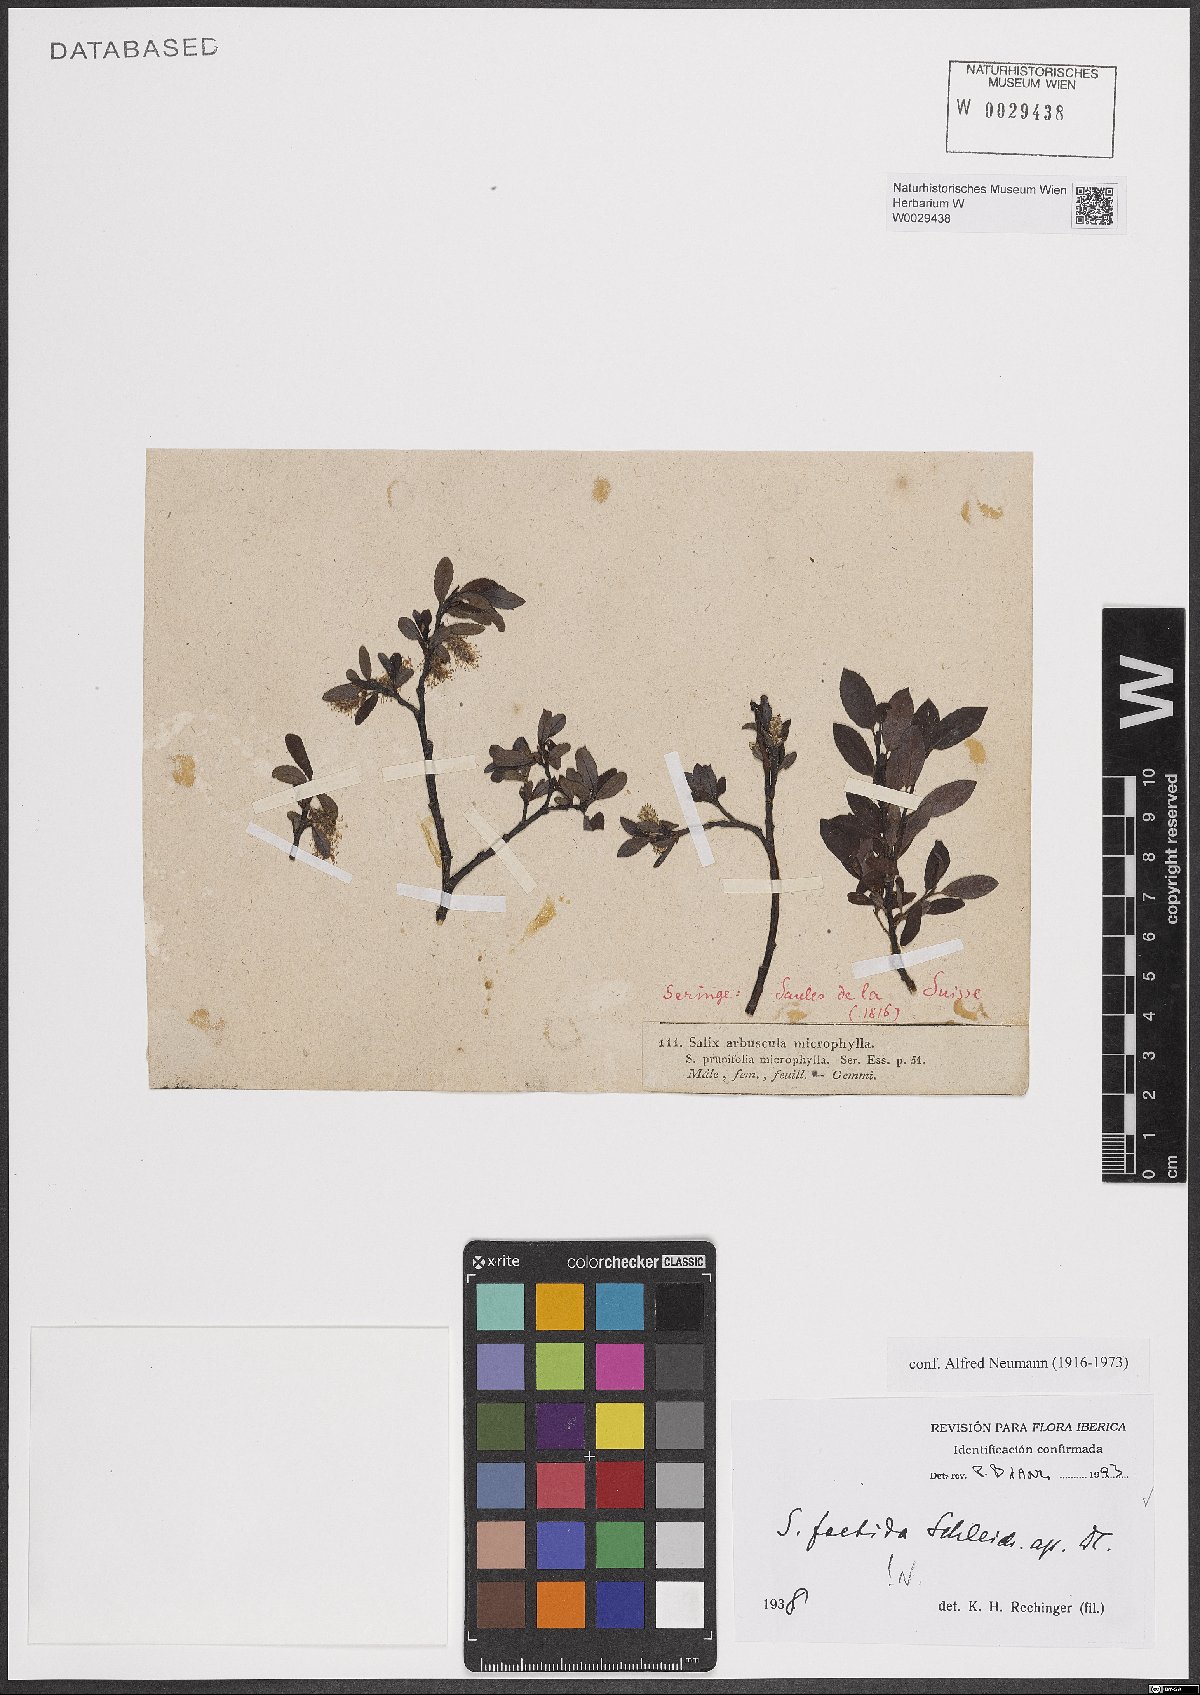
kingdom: Plantae
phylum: Tracheophyta
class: Magnoliopsida
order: Malpighiales
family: Salicaceae
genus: Salix
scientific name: Salix foetida
